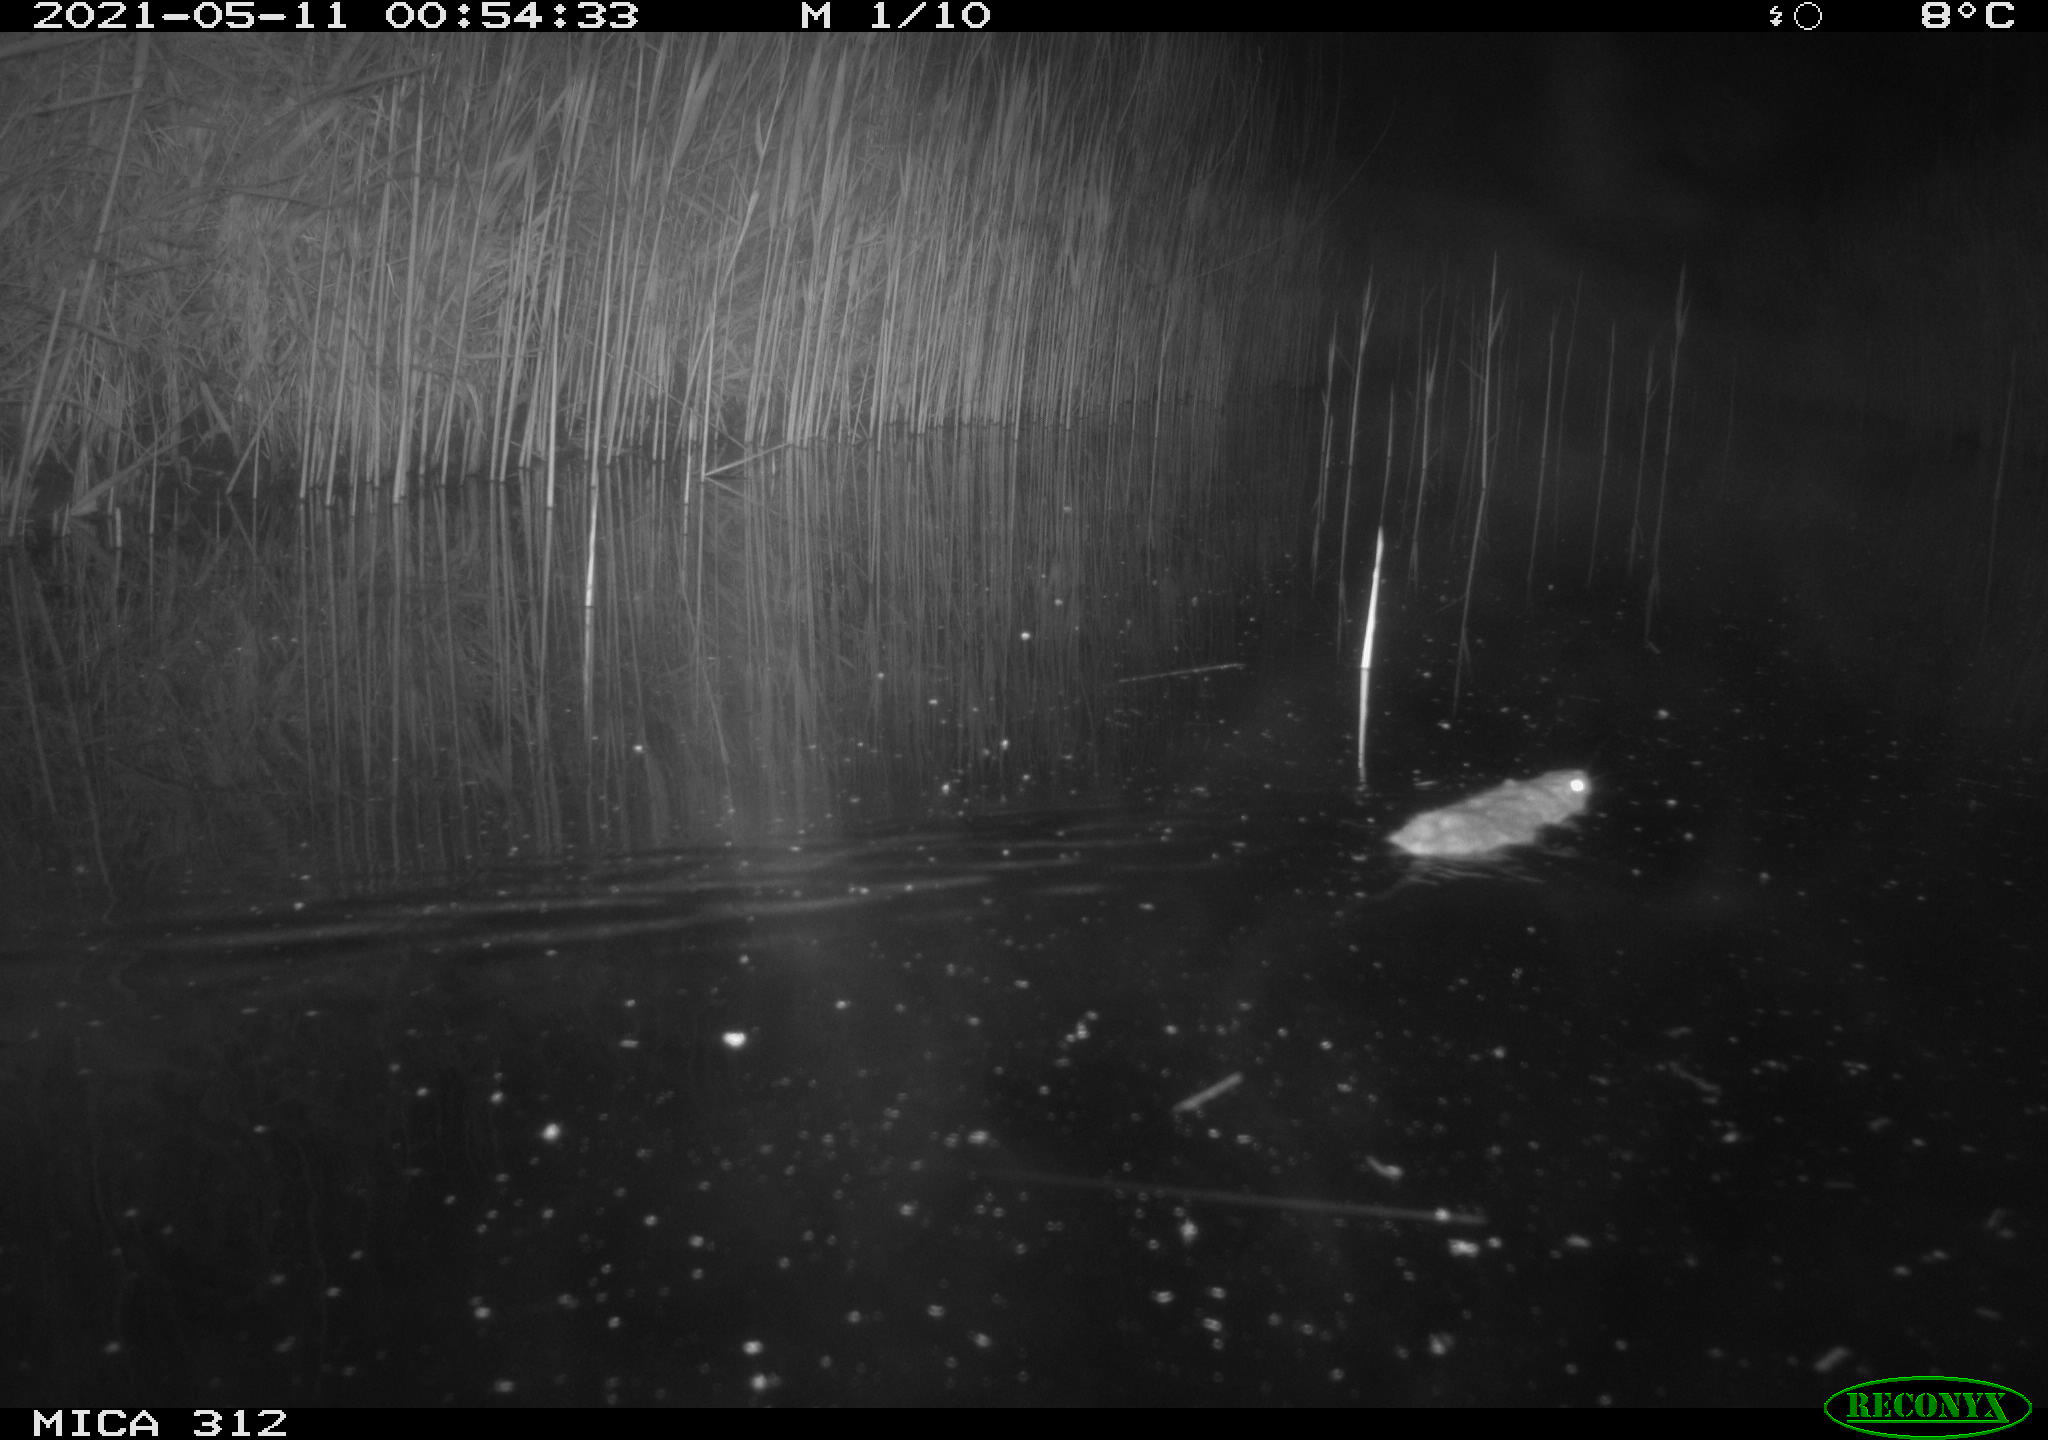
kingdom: Animalia
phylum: Chordata
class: Mammalia
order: Rodentia
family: Muridae
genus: Rattus
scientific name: Rattus norvegicus
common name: Brown rat
